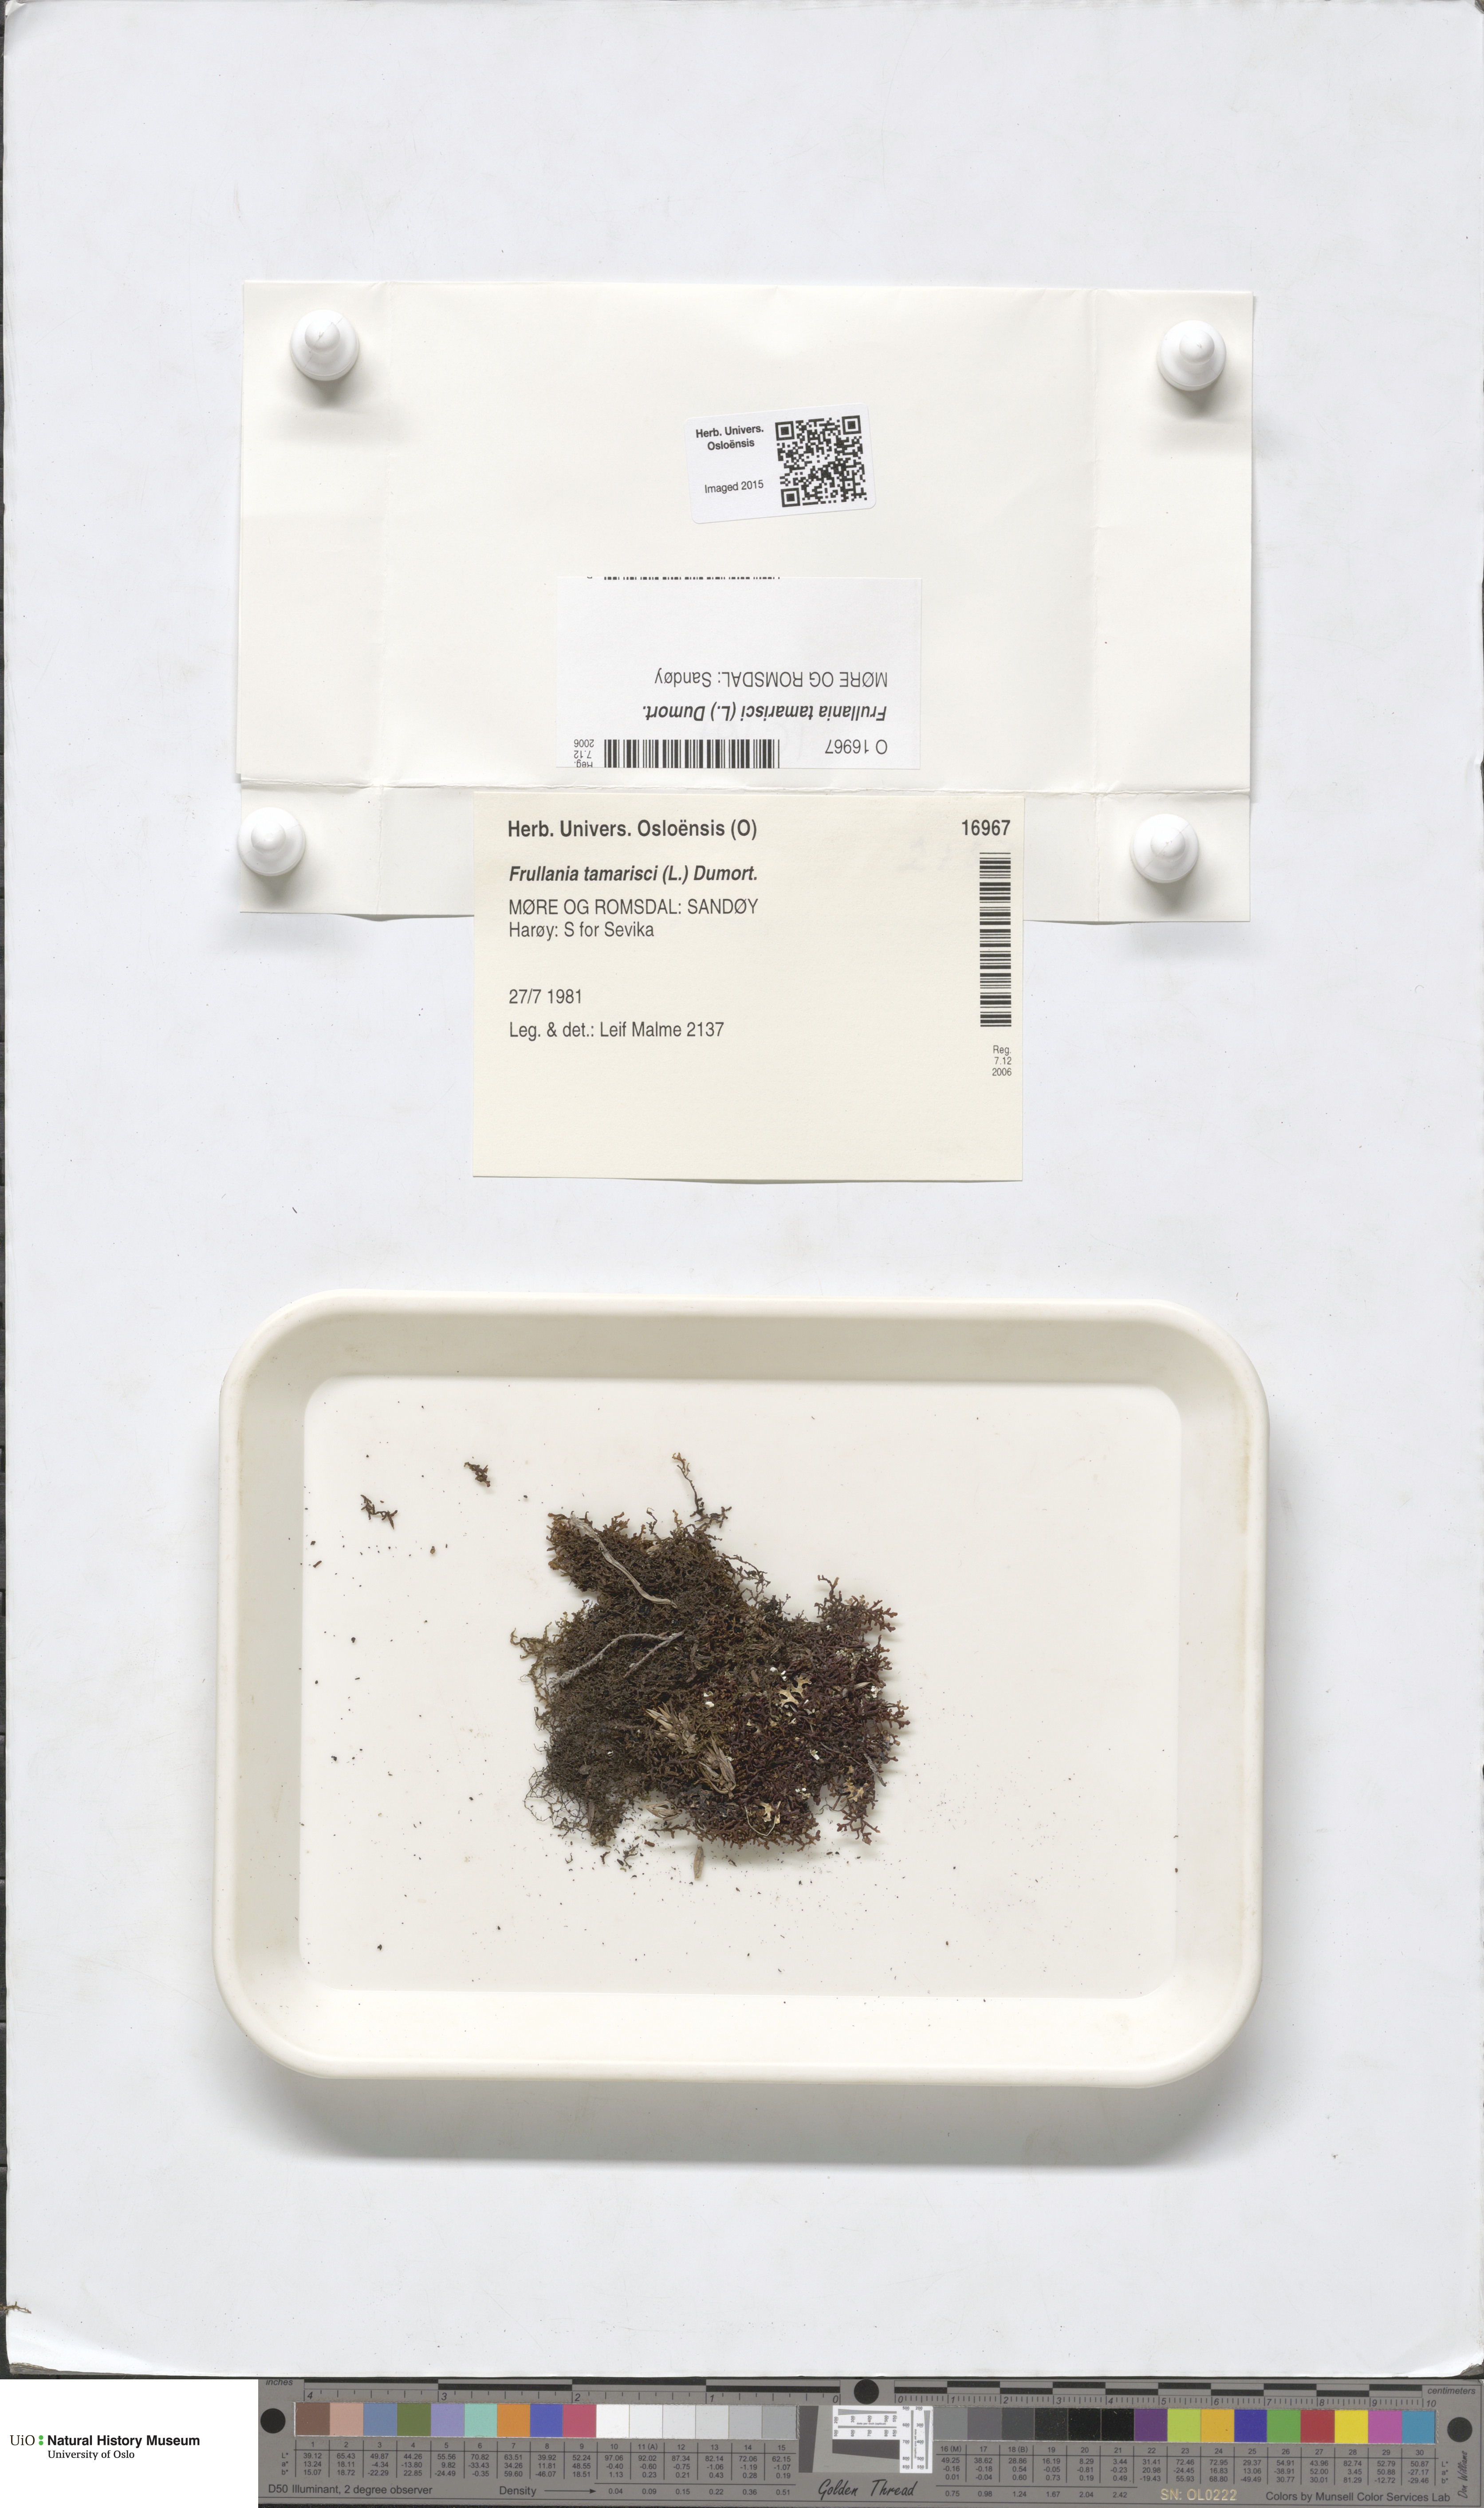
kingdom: Plantae
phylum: Marchantiophyta
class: Jungermanniopsida
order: Porellales
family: Frullaniaceae
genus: Frullania
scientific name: Frullania tamarisci
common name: Tamarisk scalewort
